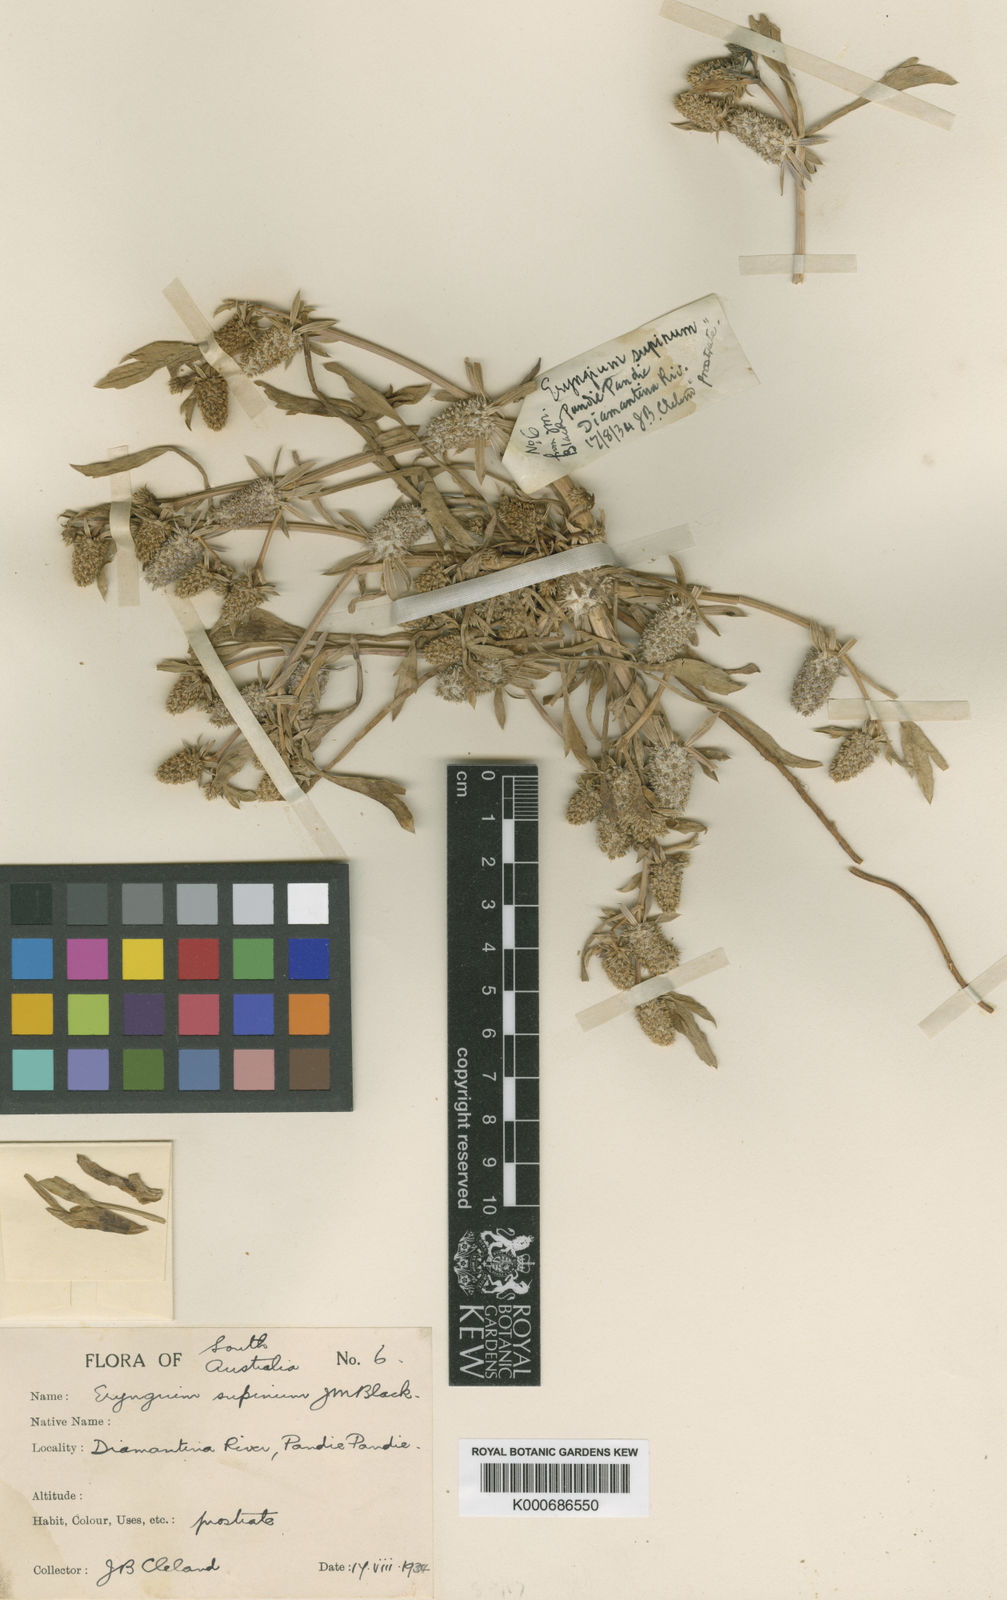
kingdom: Plantae
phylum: Tracheophyta
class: Magnoliopsida
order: Apiales
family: Apiaceae
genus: Eryngium
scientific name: Eryngium supinum
